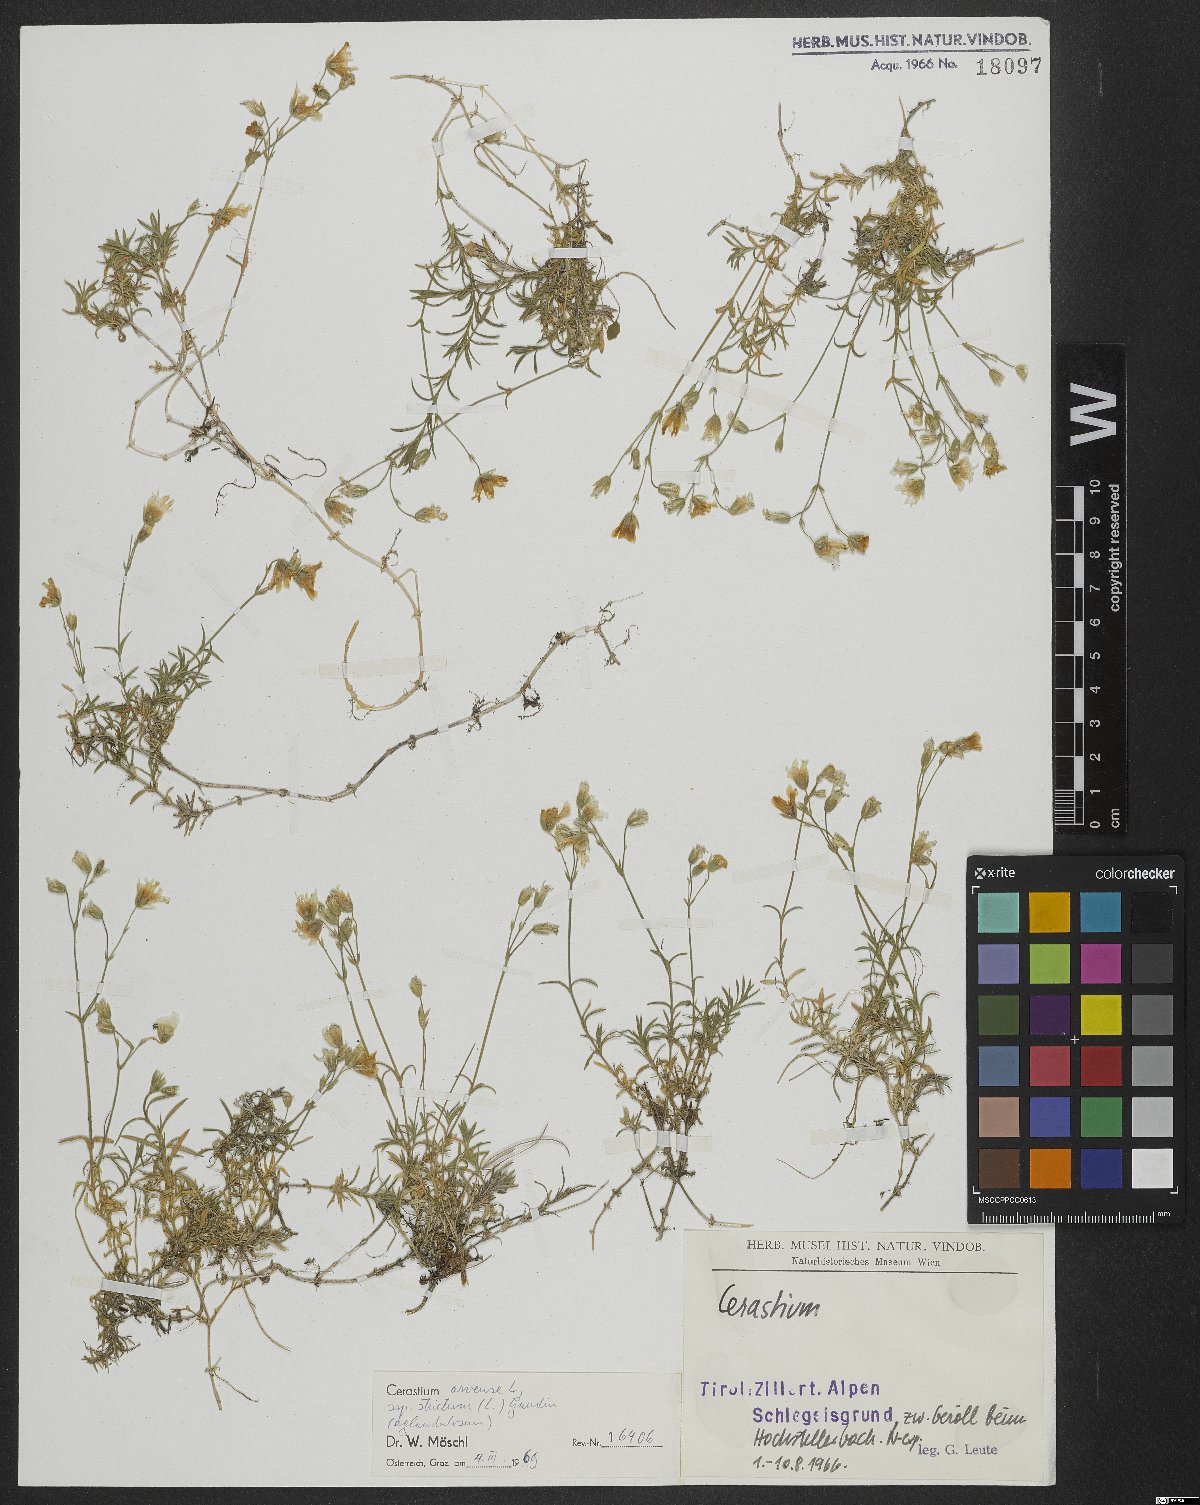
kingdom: Plantae
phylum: Tracheophyta
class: Magnoliopsida
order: Caryophyllales
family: Caryophyllaceae
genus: Cerastium
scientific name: Cerastium elongatum
